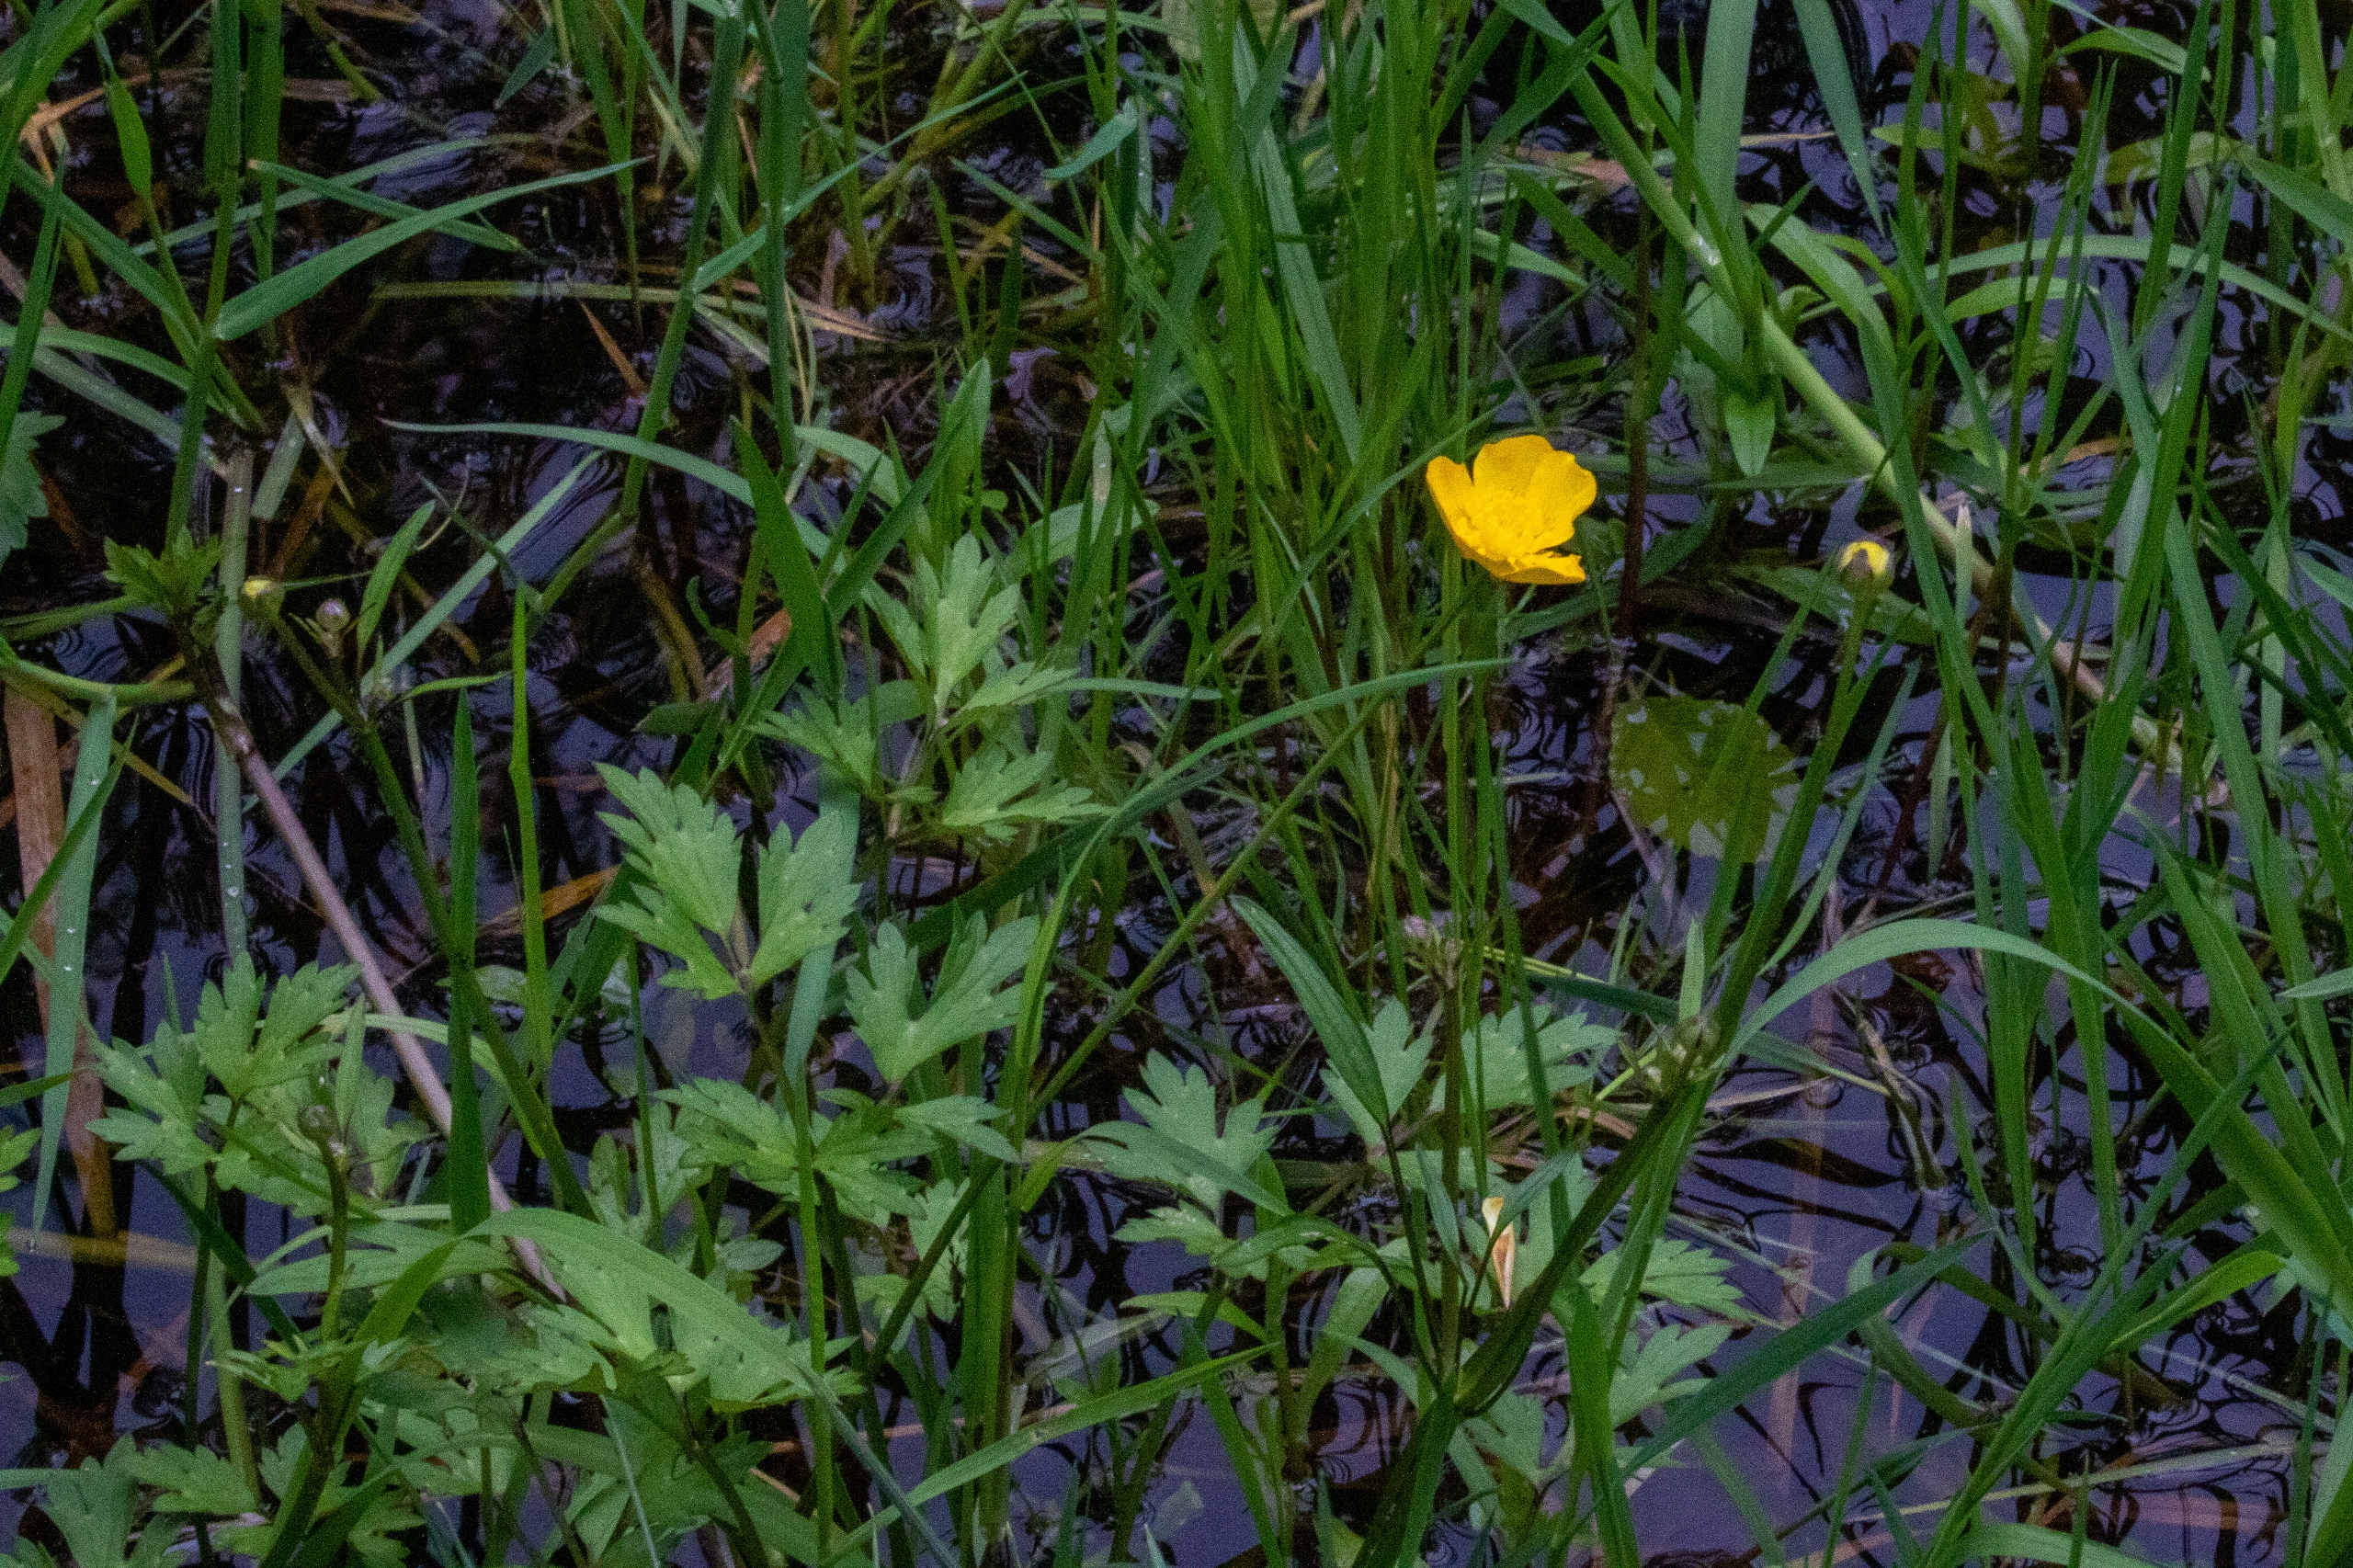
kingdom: Plantae
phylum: Tracheophyta
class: Magnoliopsida
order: Ranunculales
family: Ranunculaceae
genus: Ranunculus
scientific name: Ranunculus repens
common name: Lav ranunkel
